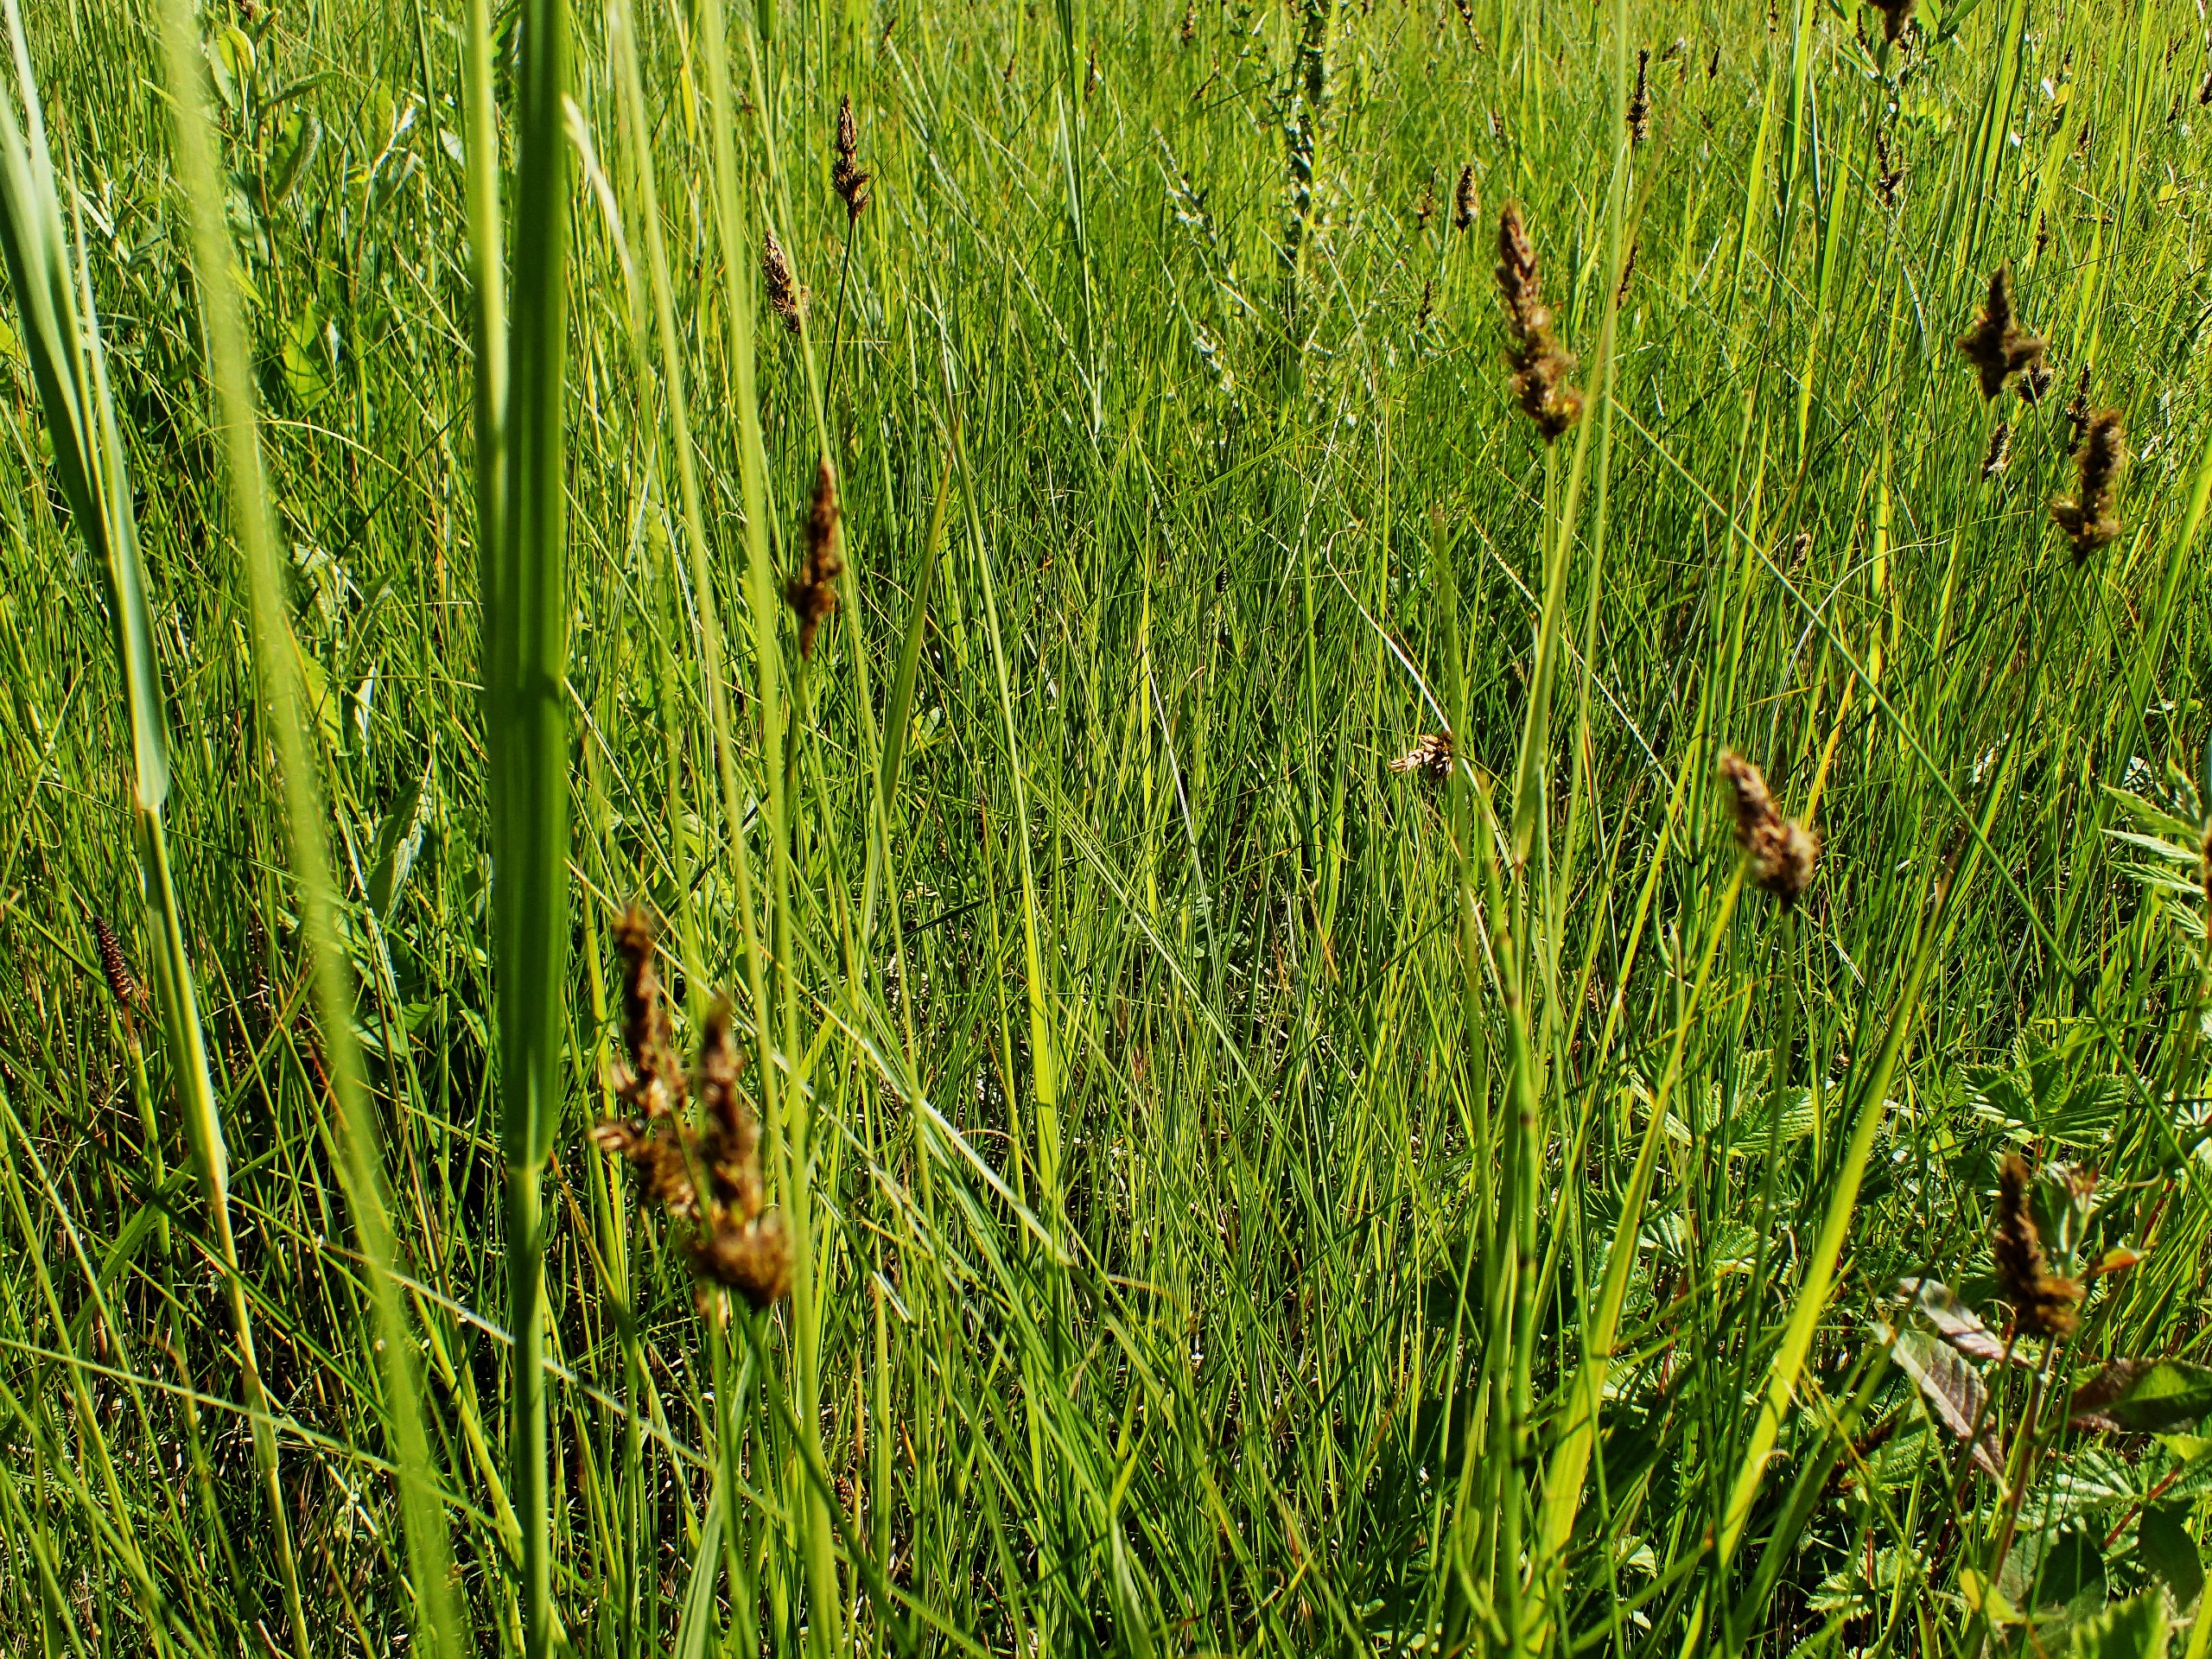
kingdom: Plantae
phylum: Tracheophyta
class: Liliopsida
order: Poales
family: Cyperaceae
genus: Carex
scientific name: Carex disticha
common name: Toradet star
